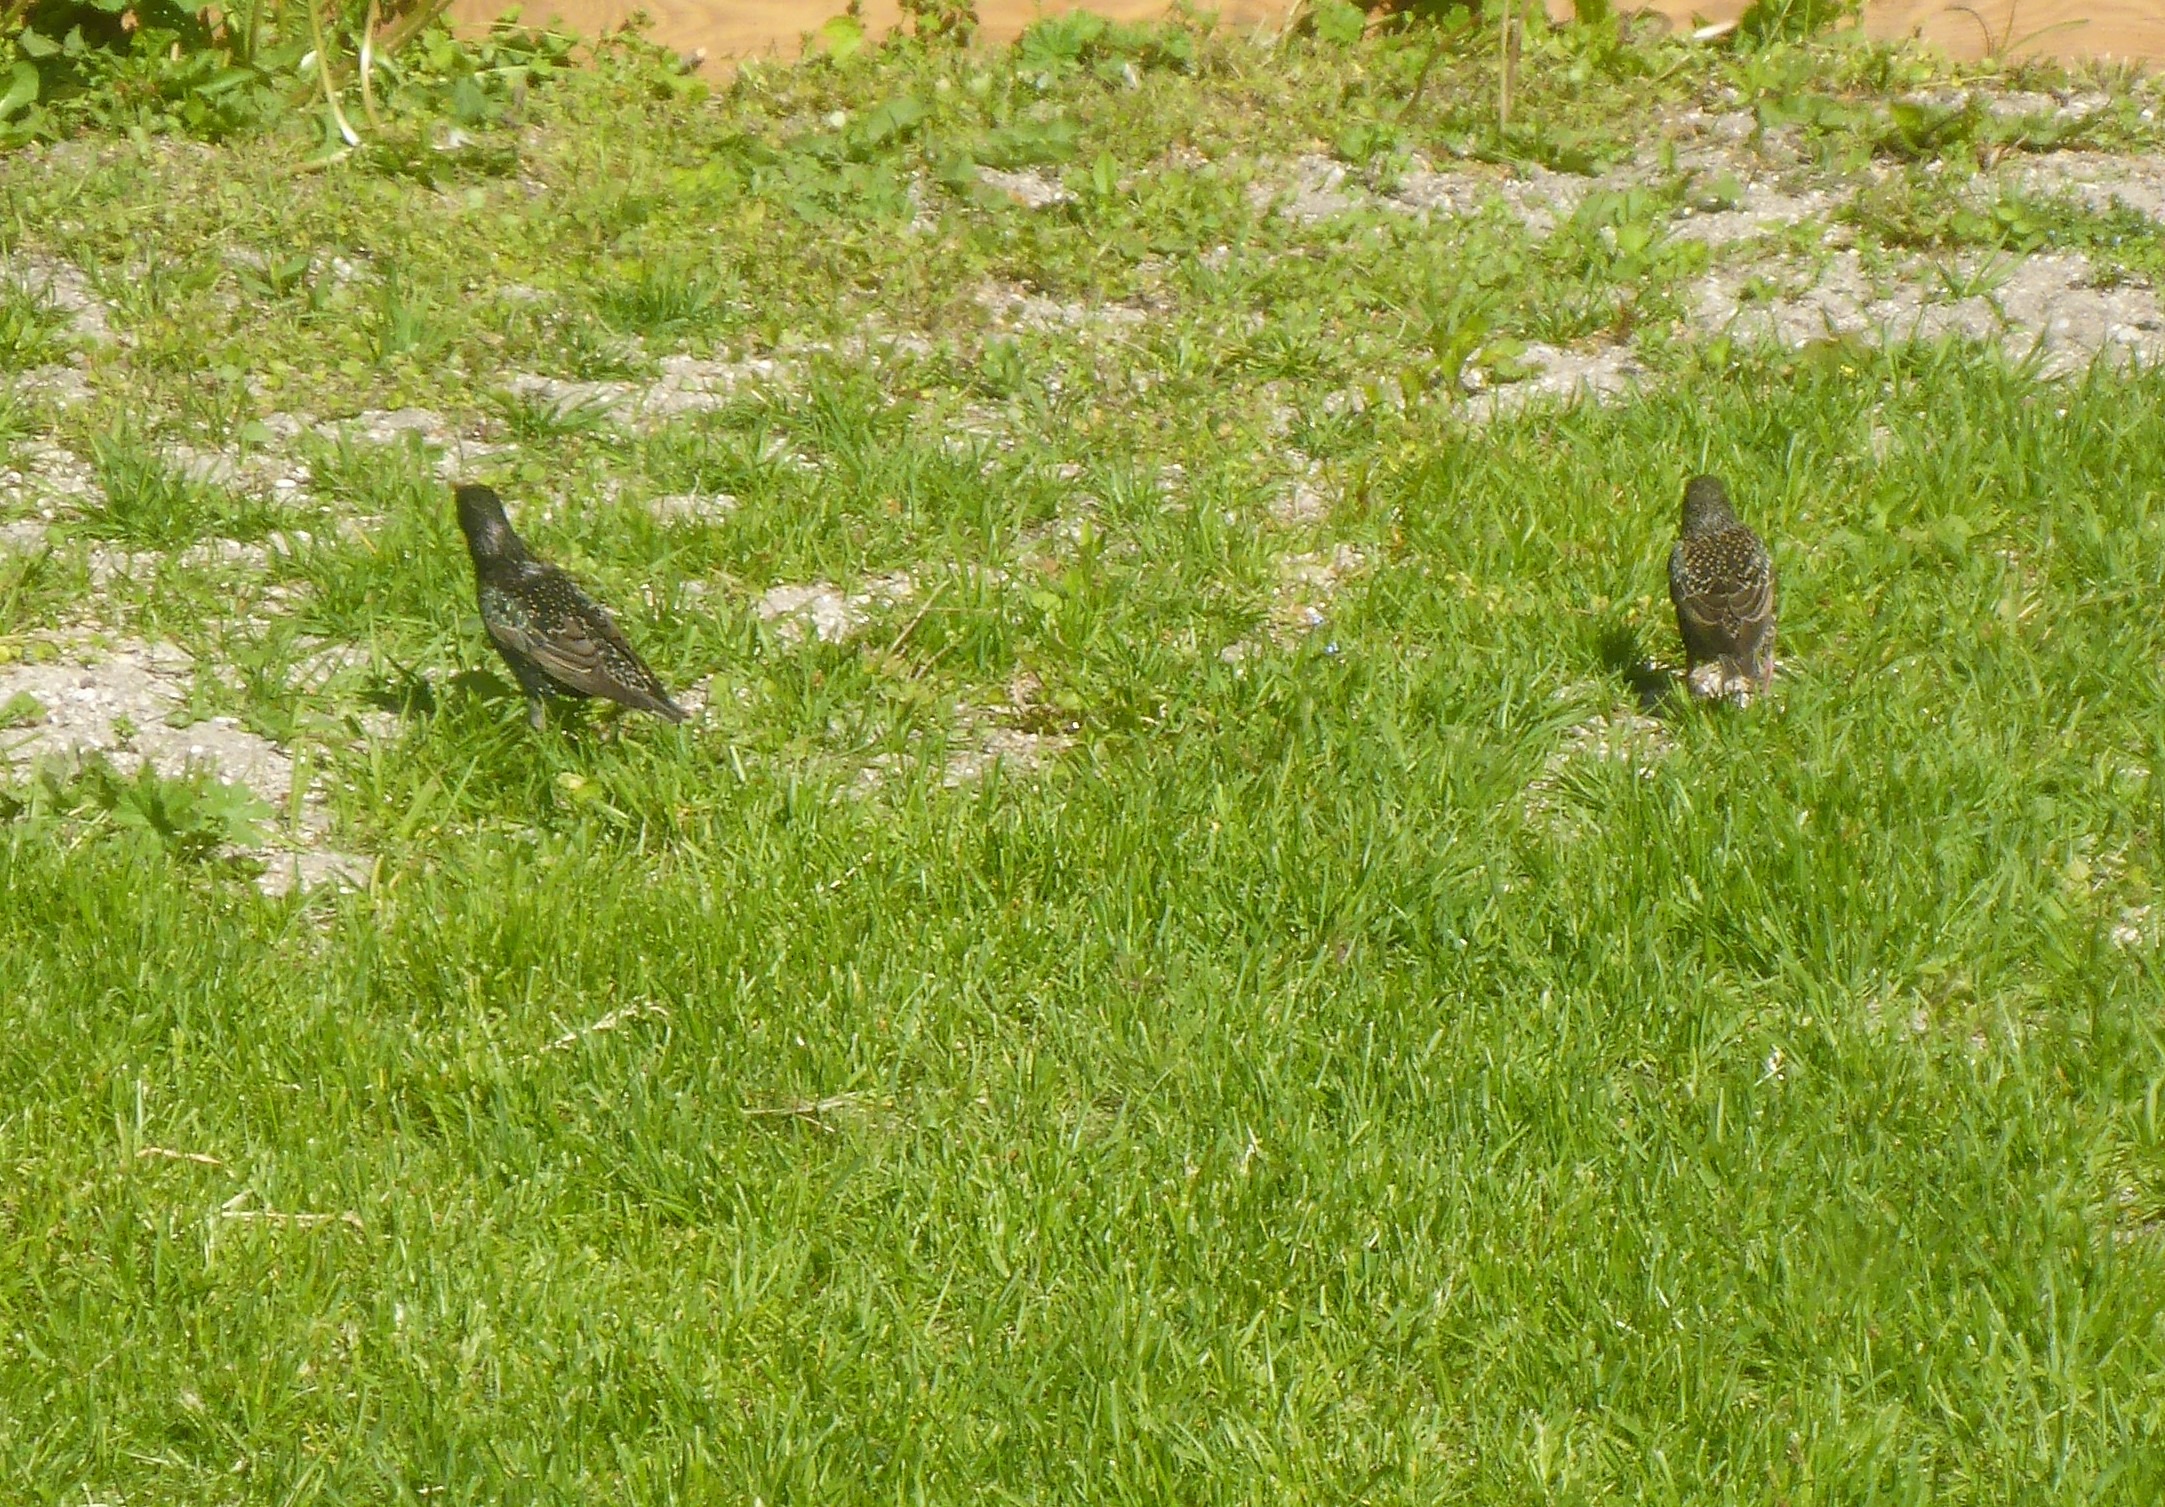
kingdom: Animalia
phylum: Chordata
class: Aves
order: Passeriformes
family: Sturnidae
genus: Sturnus
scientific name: Sturnus vulgaris
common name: Stær
